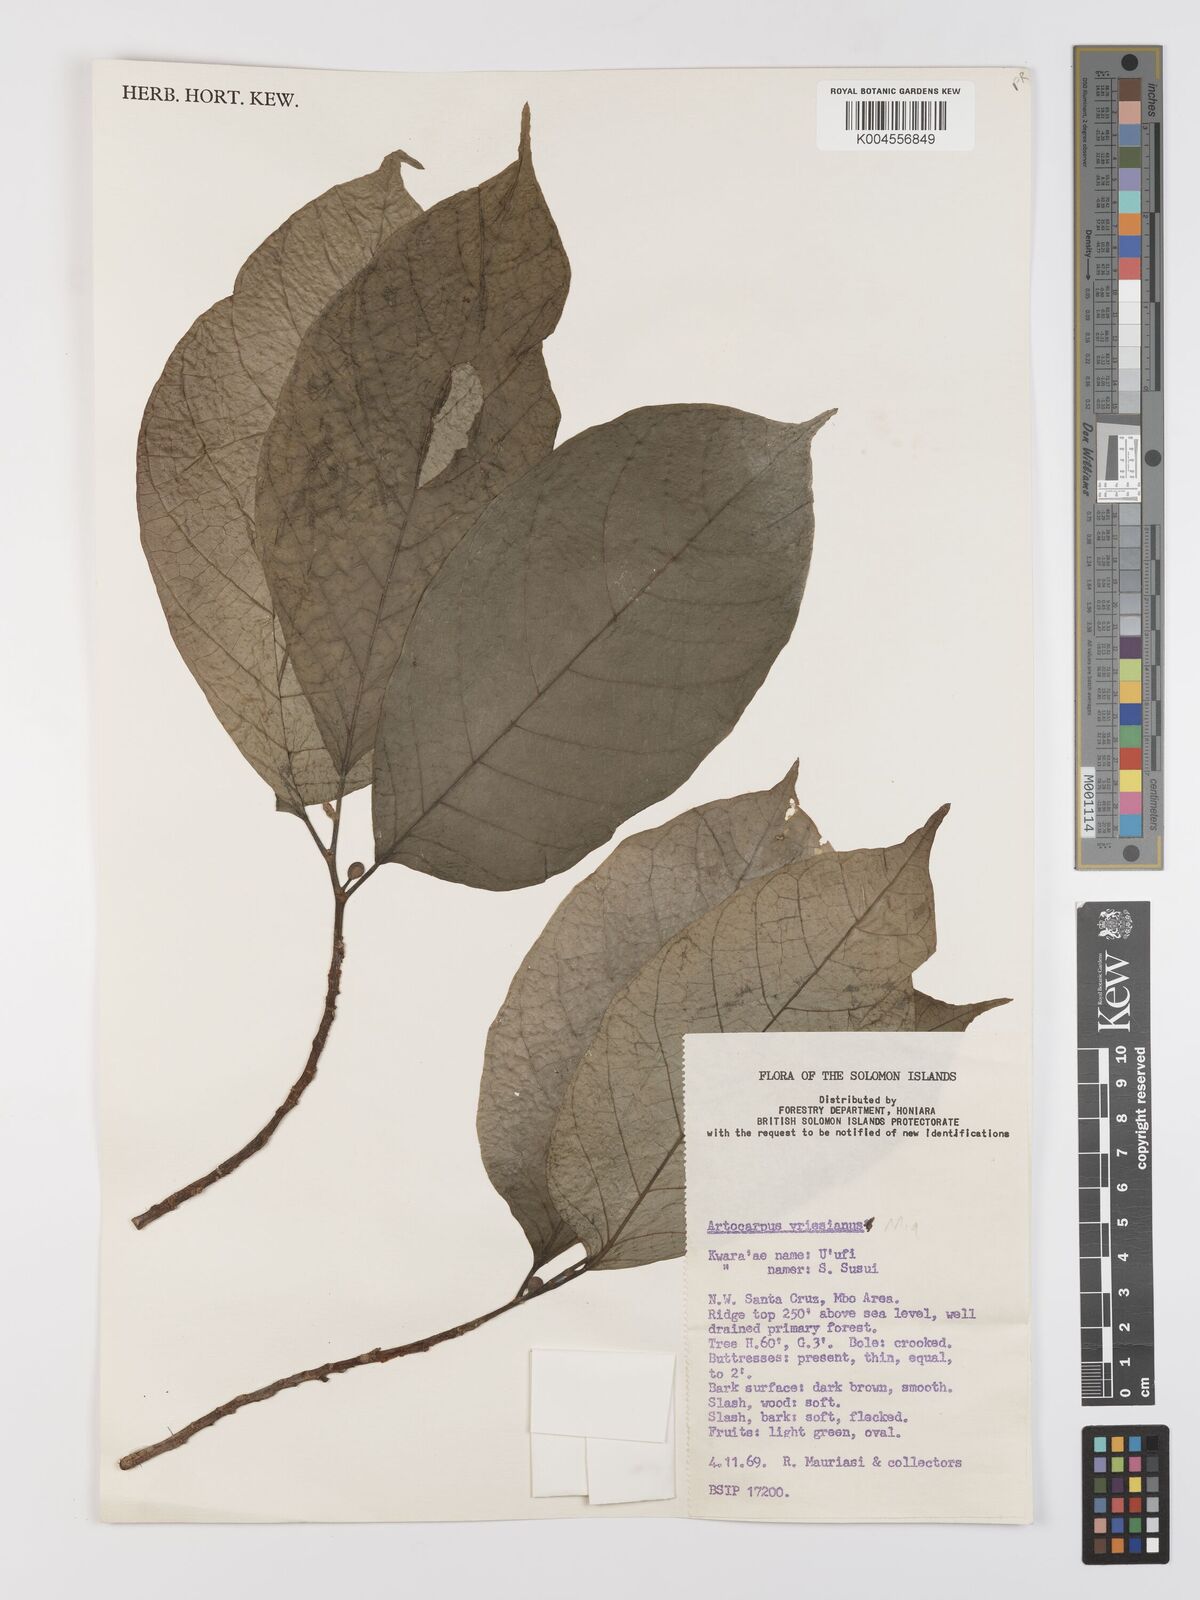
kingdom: Plantae
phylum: Tracheophyta
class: Magnoliopsida
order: Rosales
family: Moraceae
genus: Artocarpus
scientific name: Artocarpus vrieseanus
